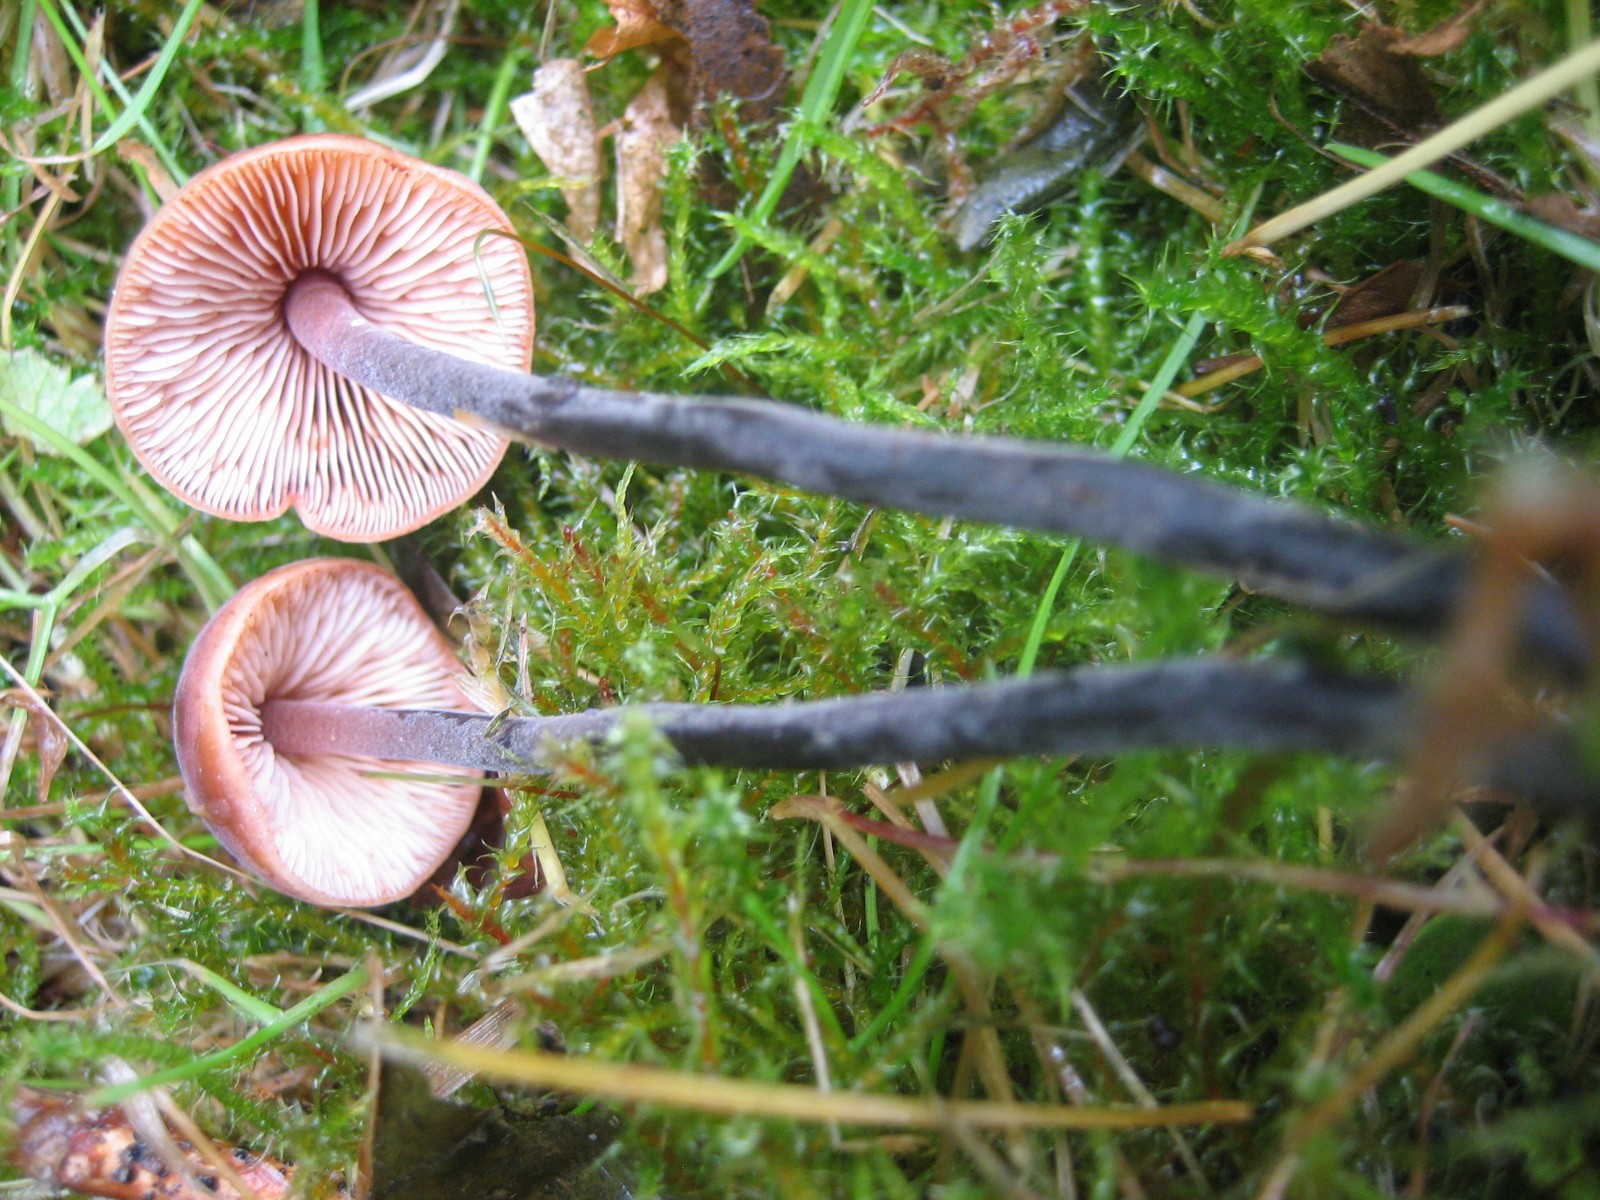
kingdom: Fungi
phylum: Basidiomycota
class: Agaricomycetes
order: Agaricales
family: Macrocystidiaceae
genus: Macrocystidia
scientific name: Macrocystidia cucumis
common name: agurkehat
